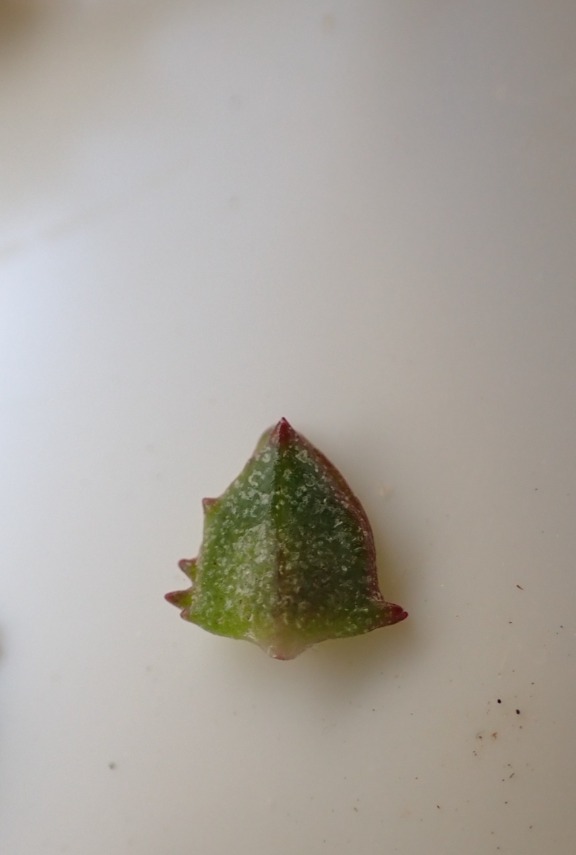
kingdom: Plantae
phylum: Tracheophyta
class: Magnoliopsida
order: Caryophyllales
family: Amaranthaceae
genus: Atriplex
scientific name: Atriplex prostrata
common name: Spyd-mælde
